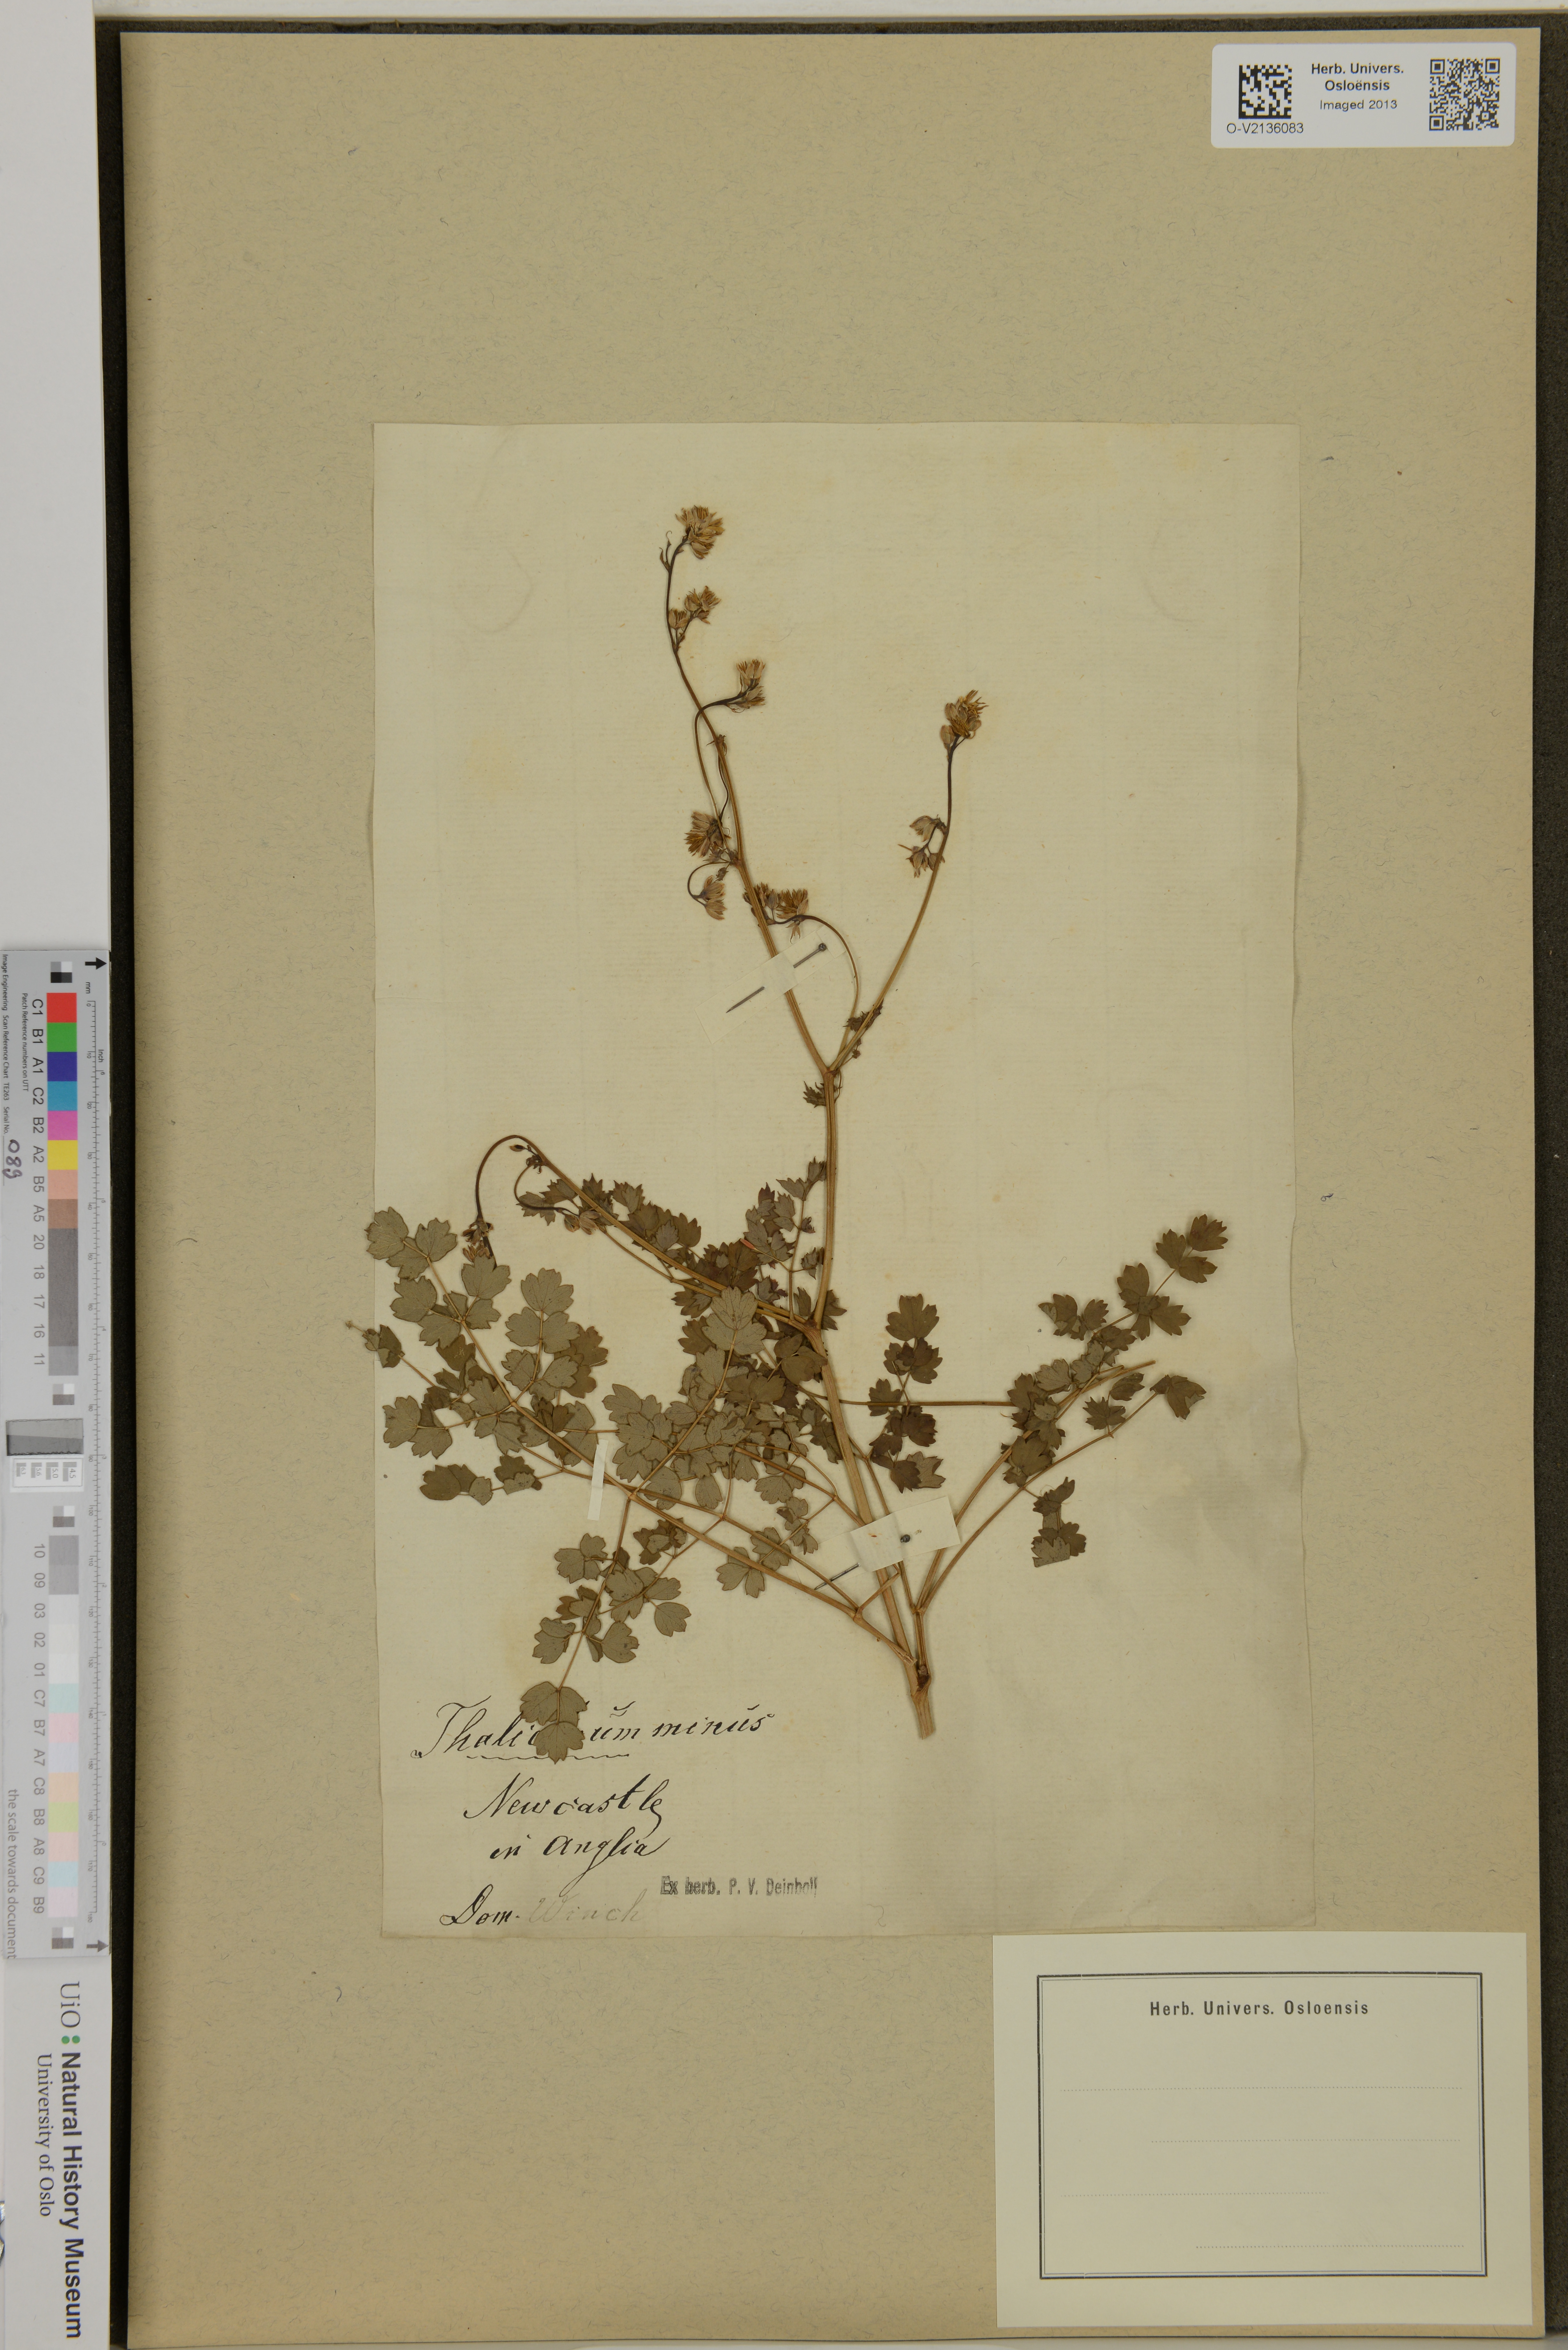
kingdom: Plantae
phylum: Tracheophyta
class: Magnoliopsida
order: Ranunculales
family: Ranunculaceae
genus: Thalictrum
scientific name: Thalictrum minus
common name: Lesser meadow-rue
